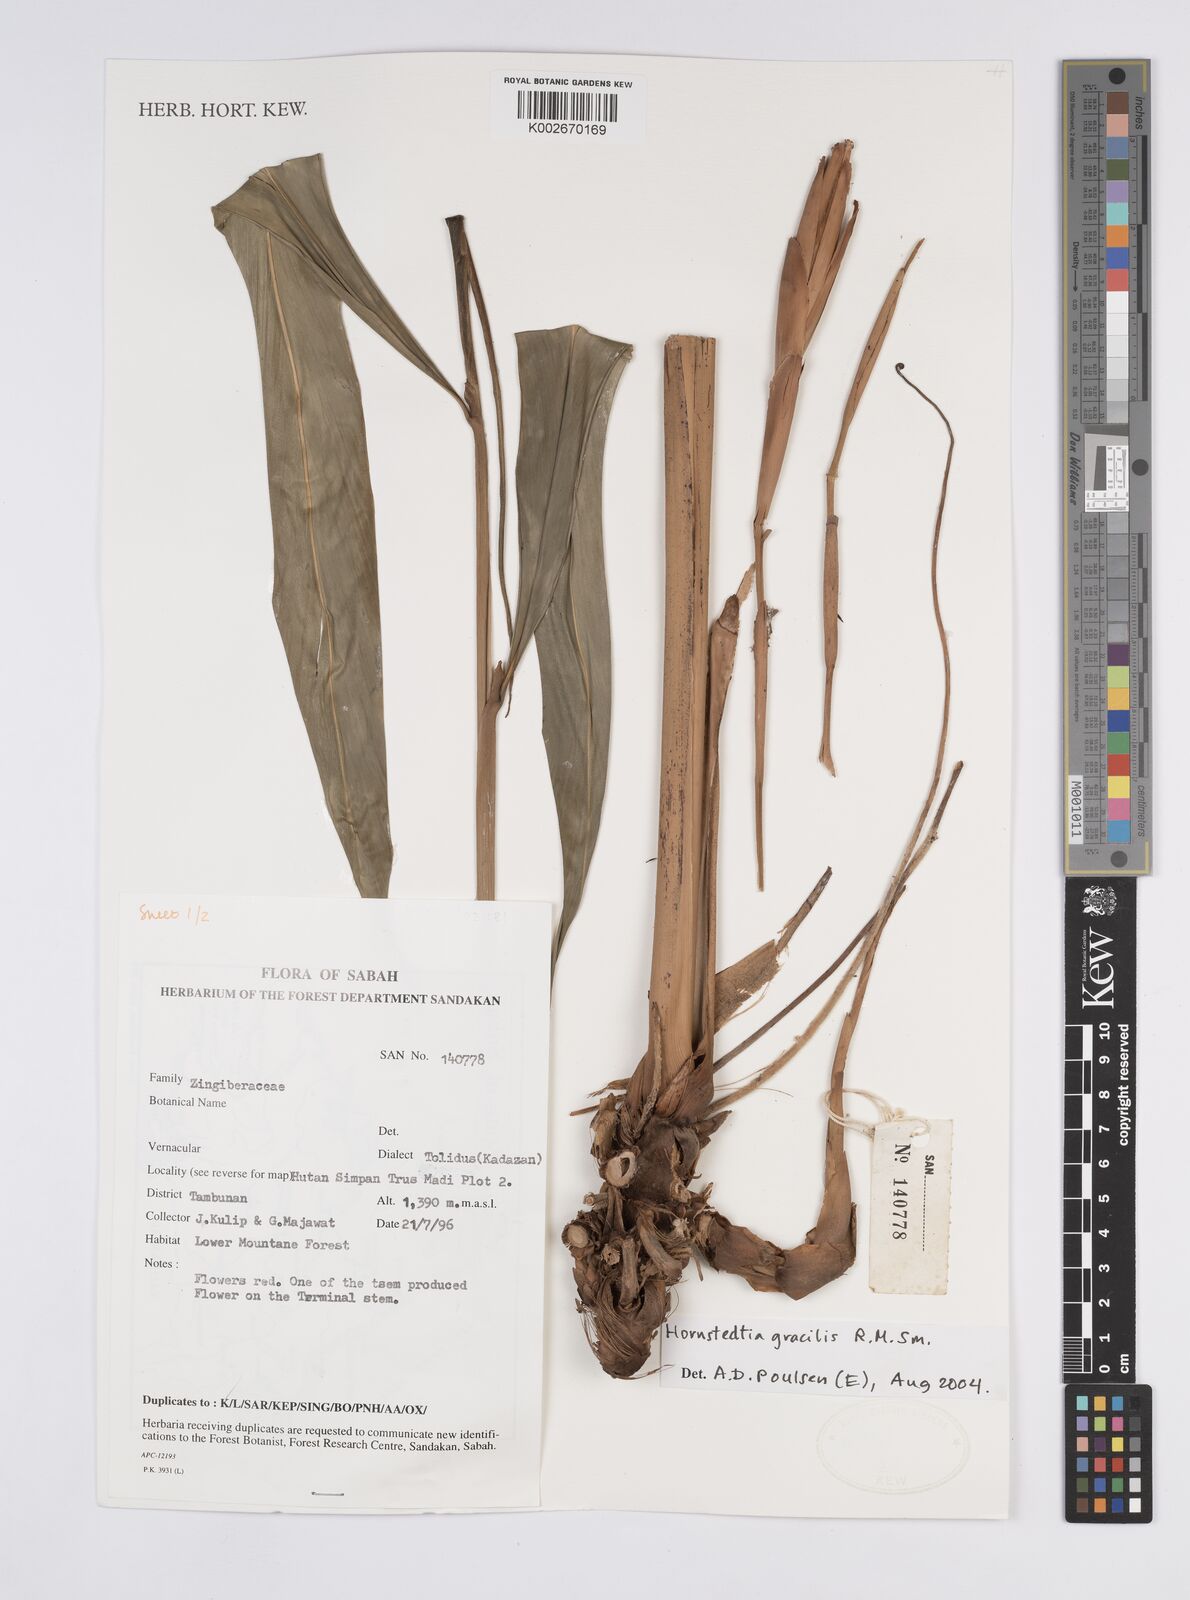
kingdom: Plantae
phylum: Tracheophyta
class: Liliopsida
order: Zingiberales
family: Zingiberaceae
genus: Hornstedtia
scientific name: Hornstedtia gracilis
